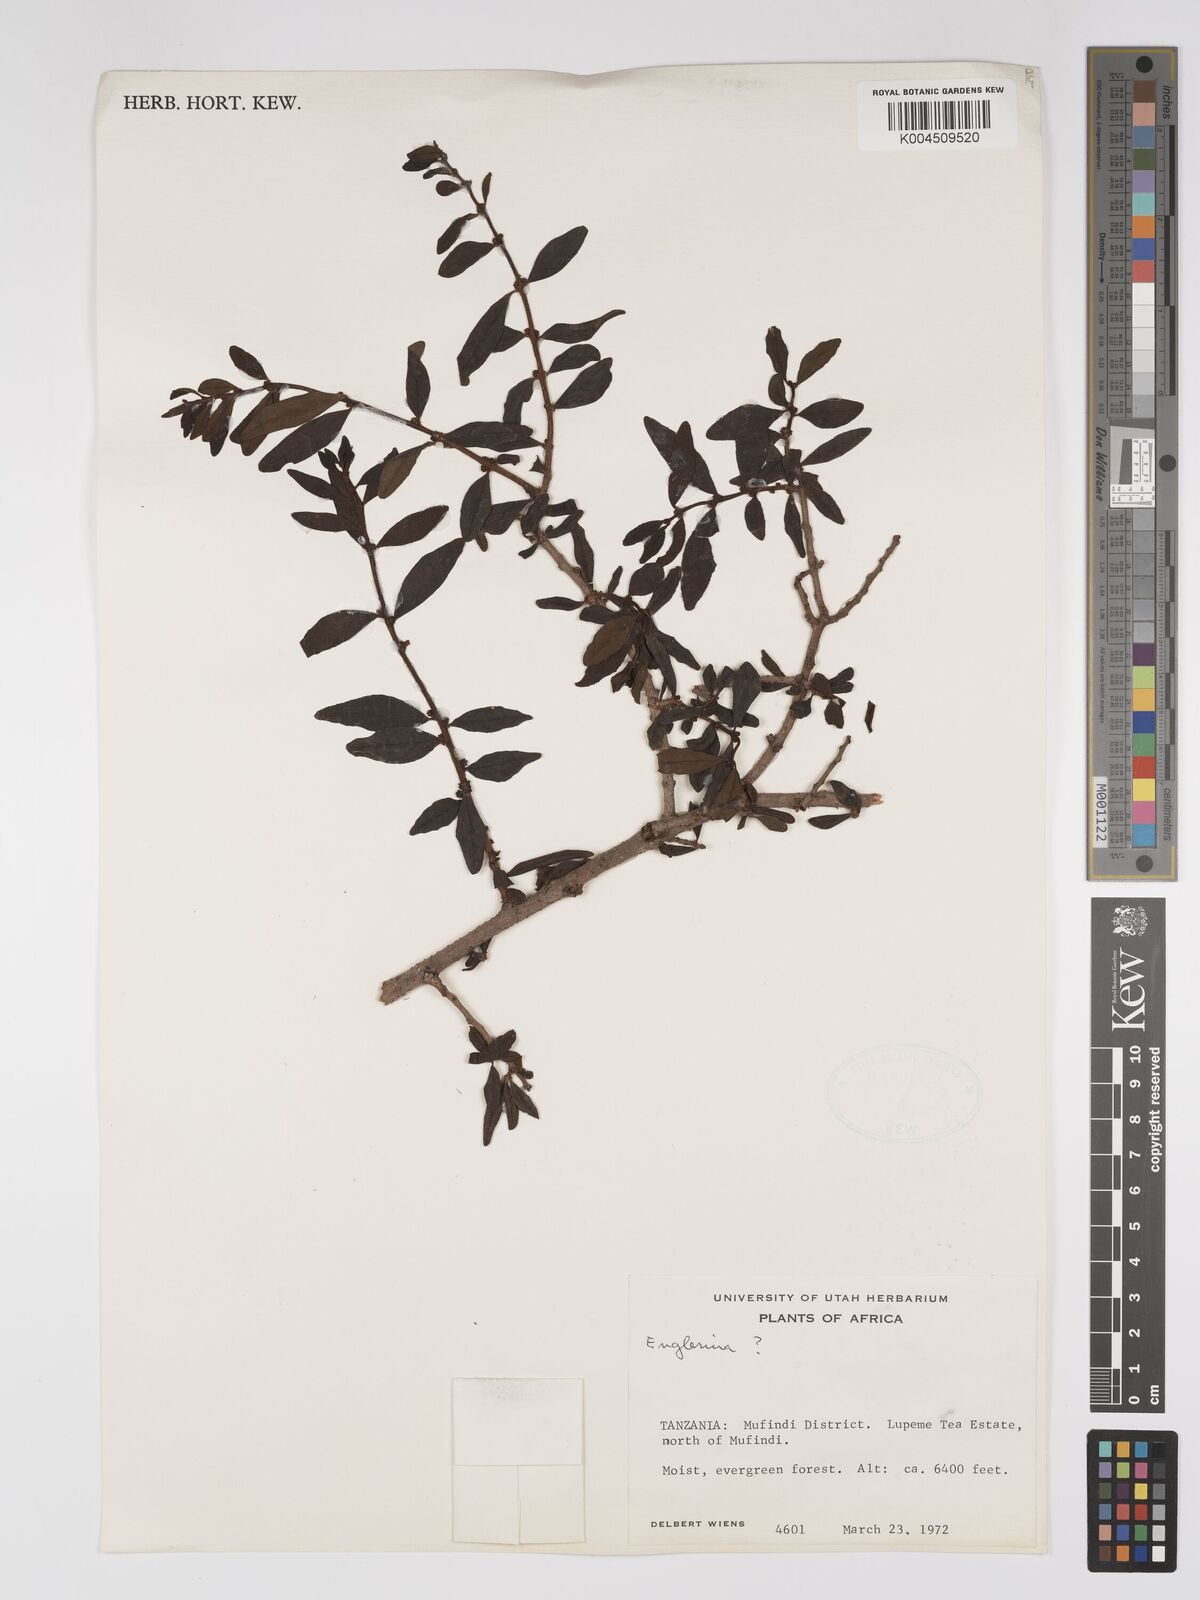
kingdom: Plantae
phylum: Tracheophyta
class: Magnoliopsida
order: Santalales
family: Loranthaceae
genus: Englerina
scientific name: Englerina inaequilatera
